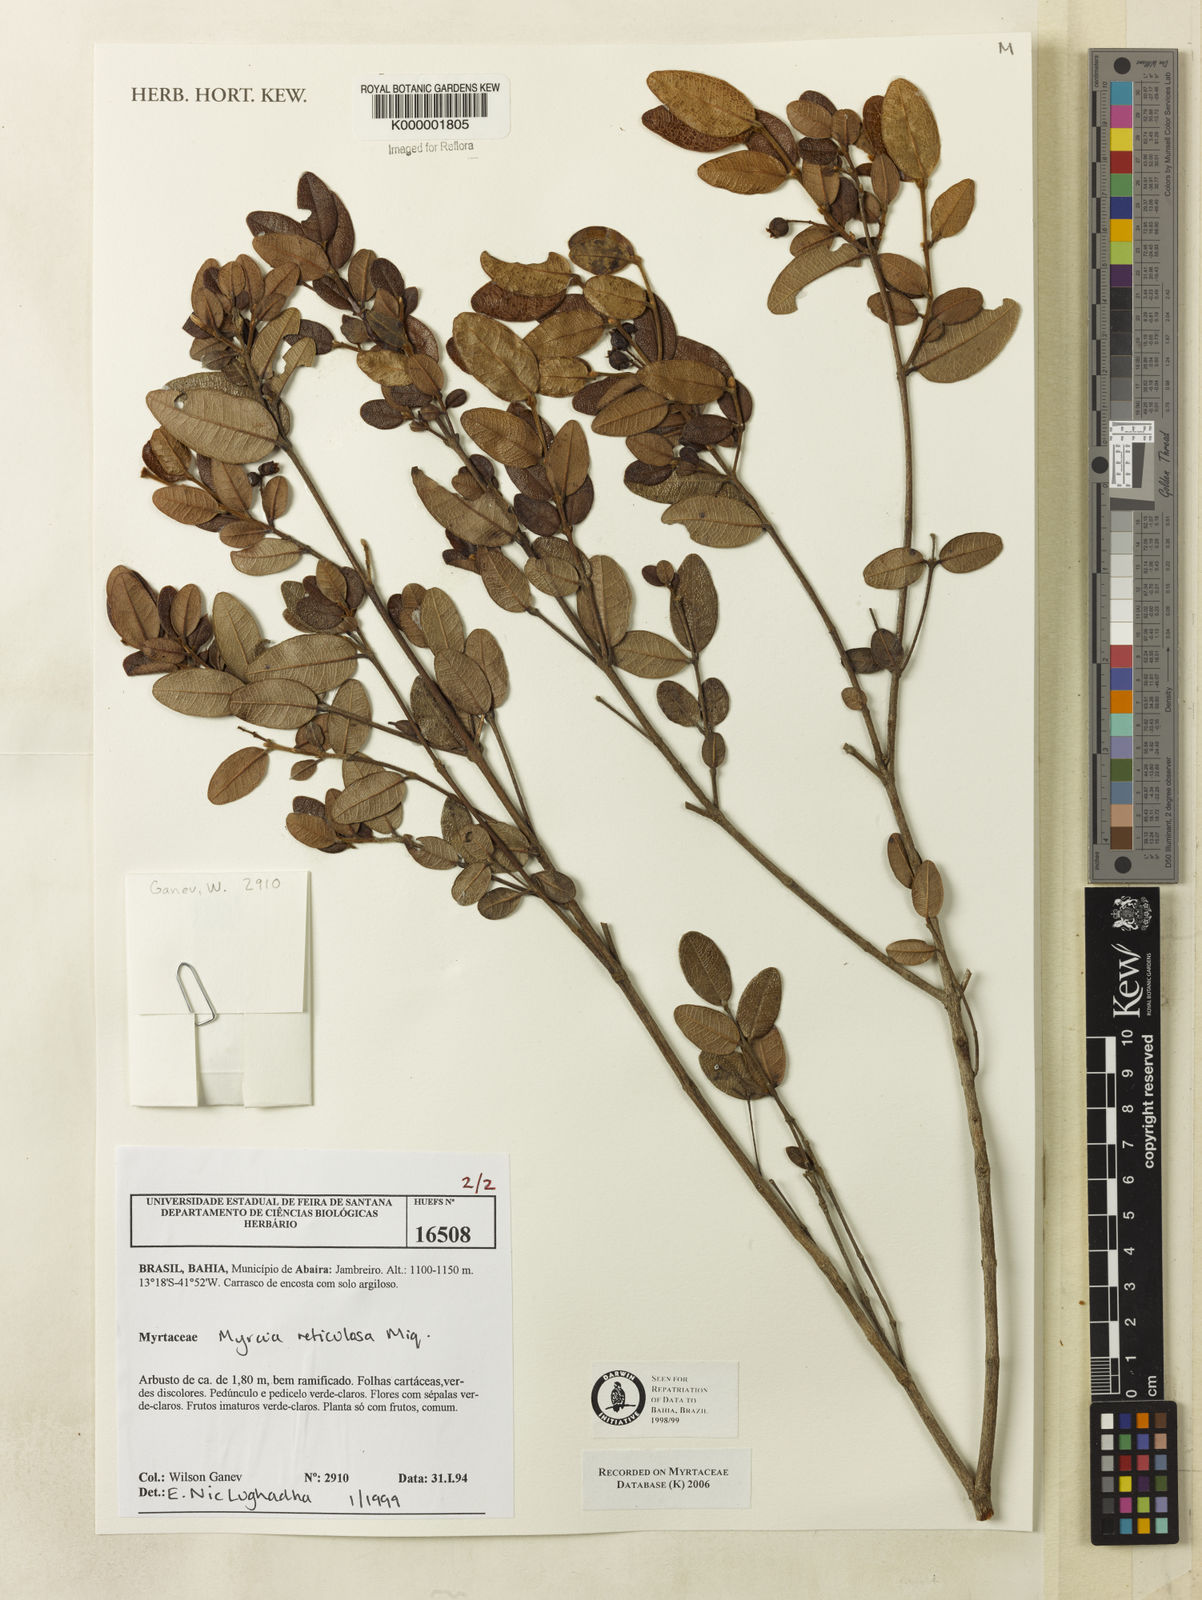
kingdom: Plantae
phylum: Tracheophyta
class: Magnoliopsida
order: Myrtales
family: Myrtaceae
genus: Myrcia
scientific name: Myrcia
